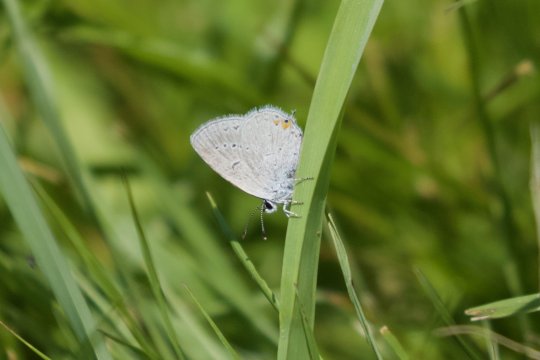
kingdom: Animalia
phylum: Arthropoda
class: Insecta
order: Lepidoptera
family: Lycaenidae
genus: Elkalyce
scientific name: Elkalyce comyntas
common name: Eastern Tailed-Blue
